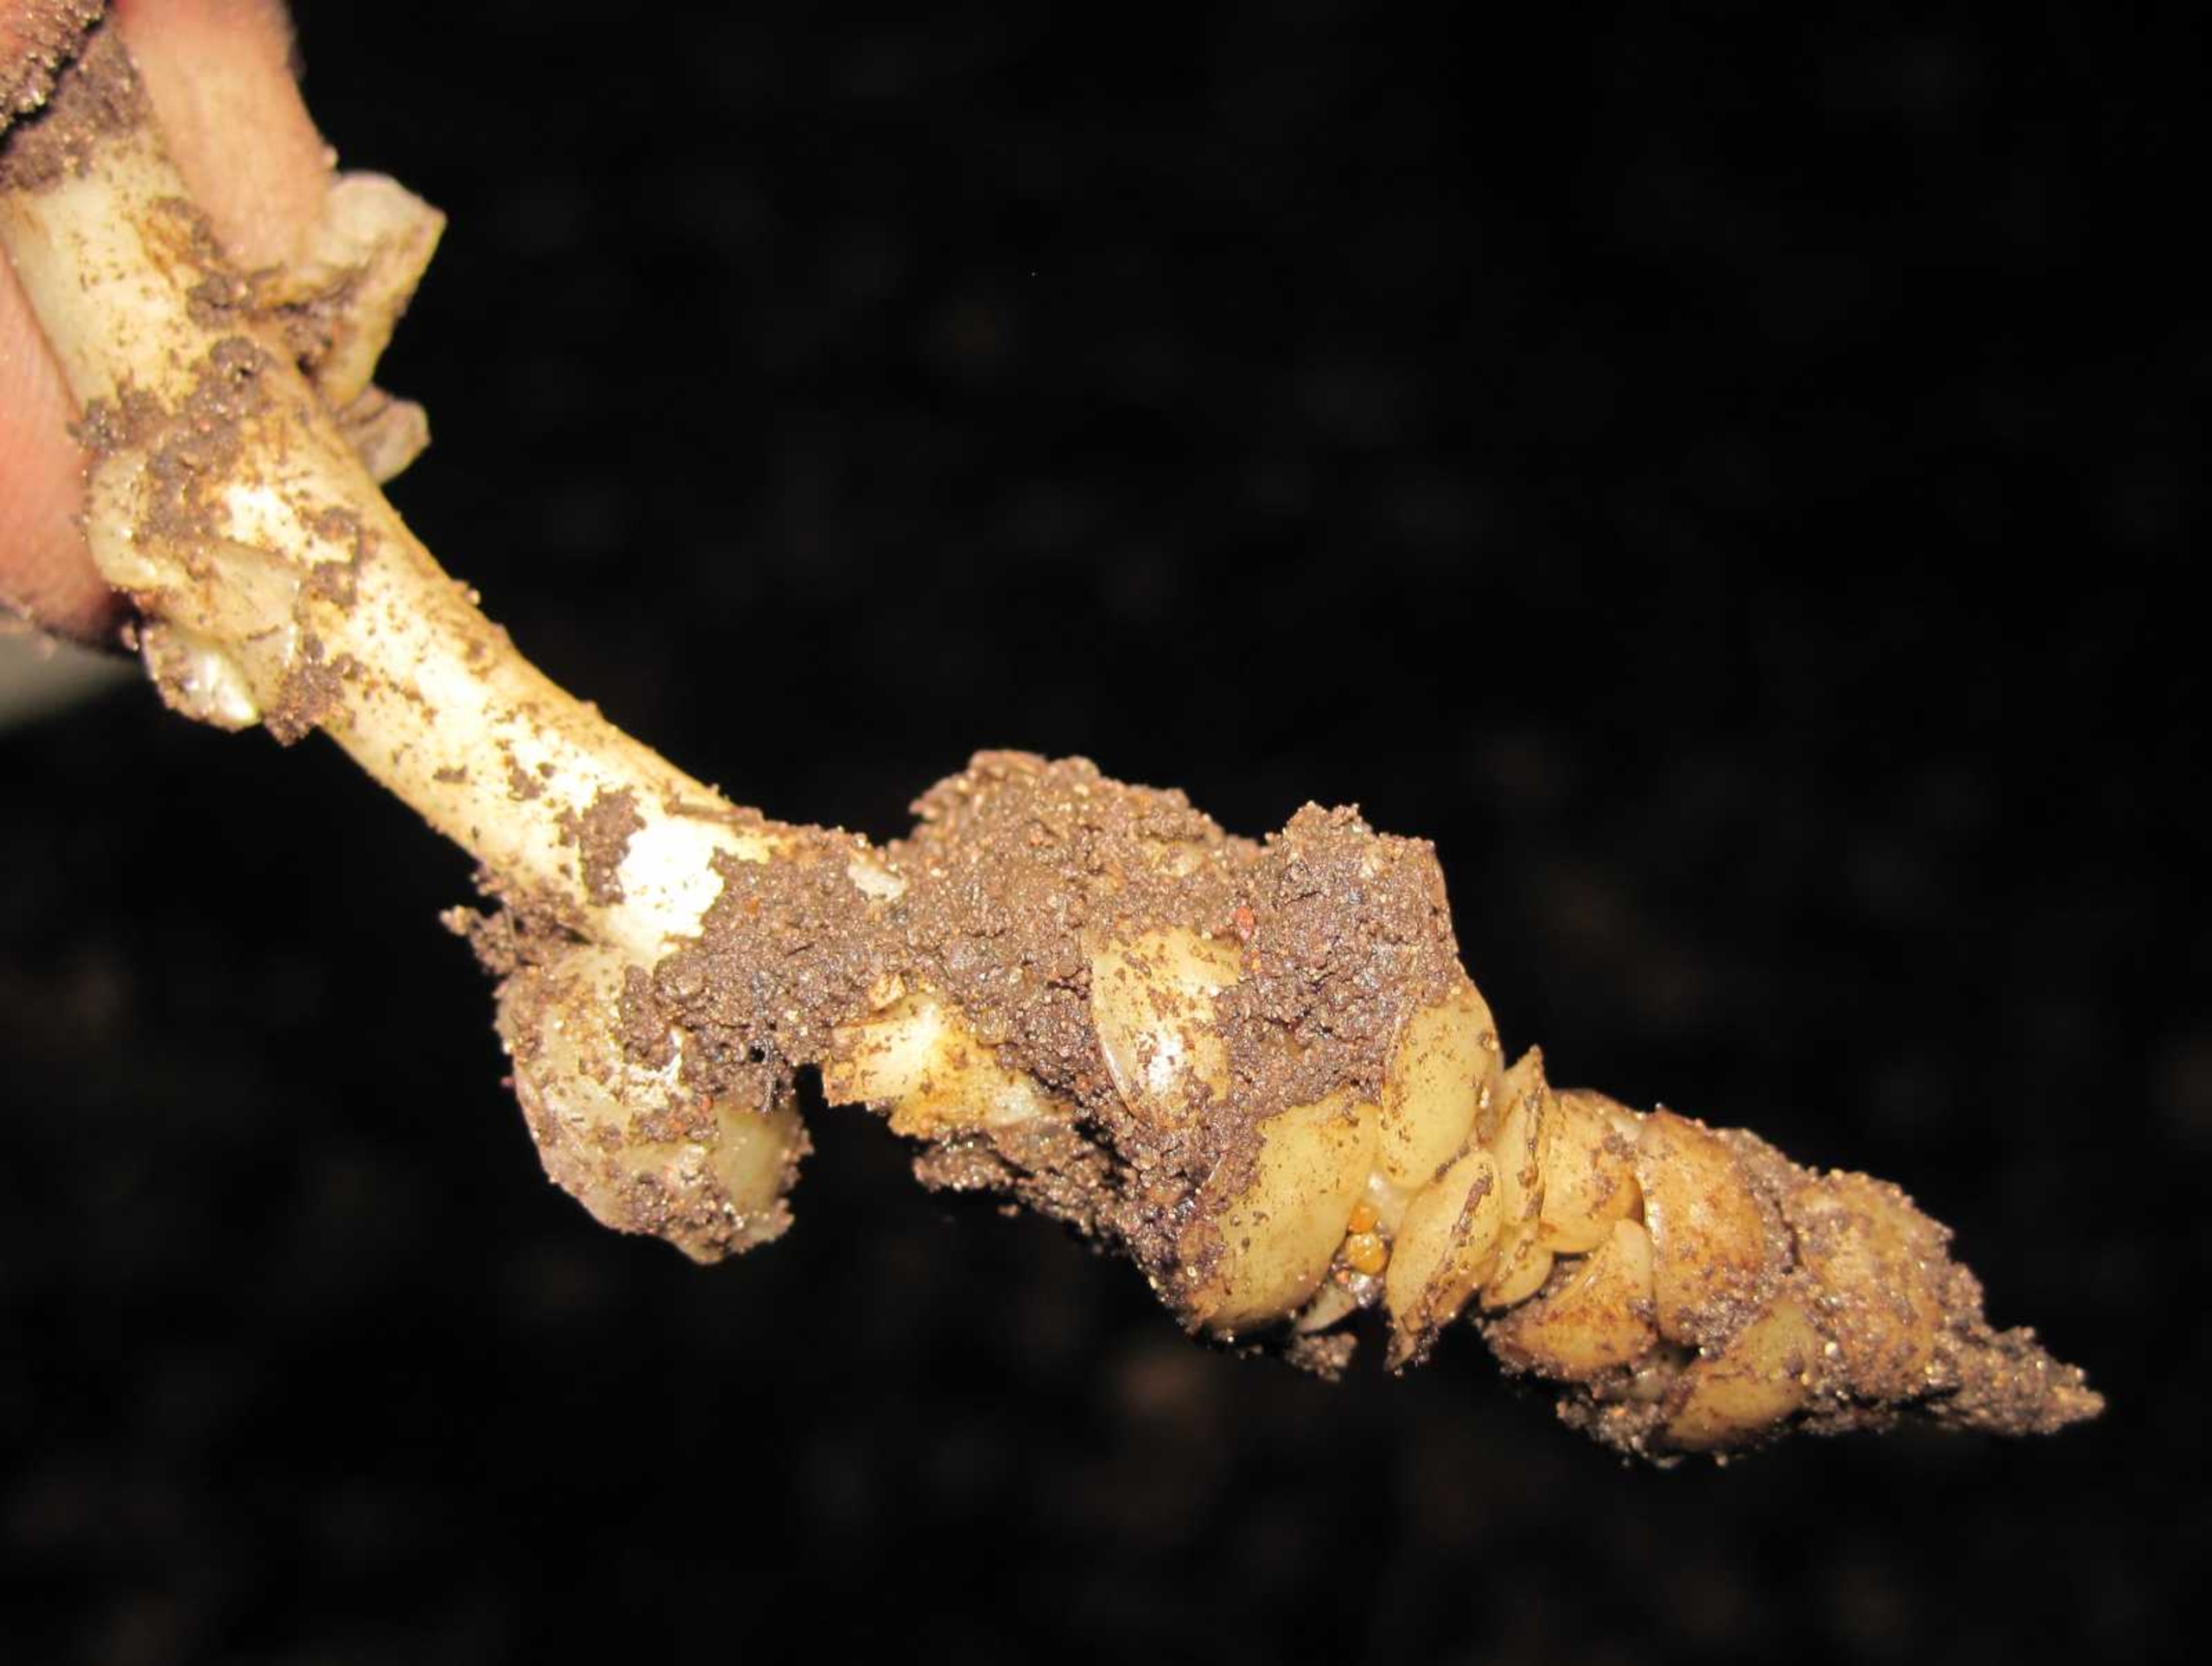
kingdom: Plantae
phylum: Tracheophyta
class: Magnoliopsida
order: Lamiales
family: Orobanchaceae
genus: Lathraea
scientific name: Lathraea squamaria
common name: Skælrod
